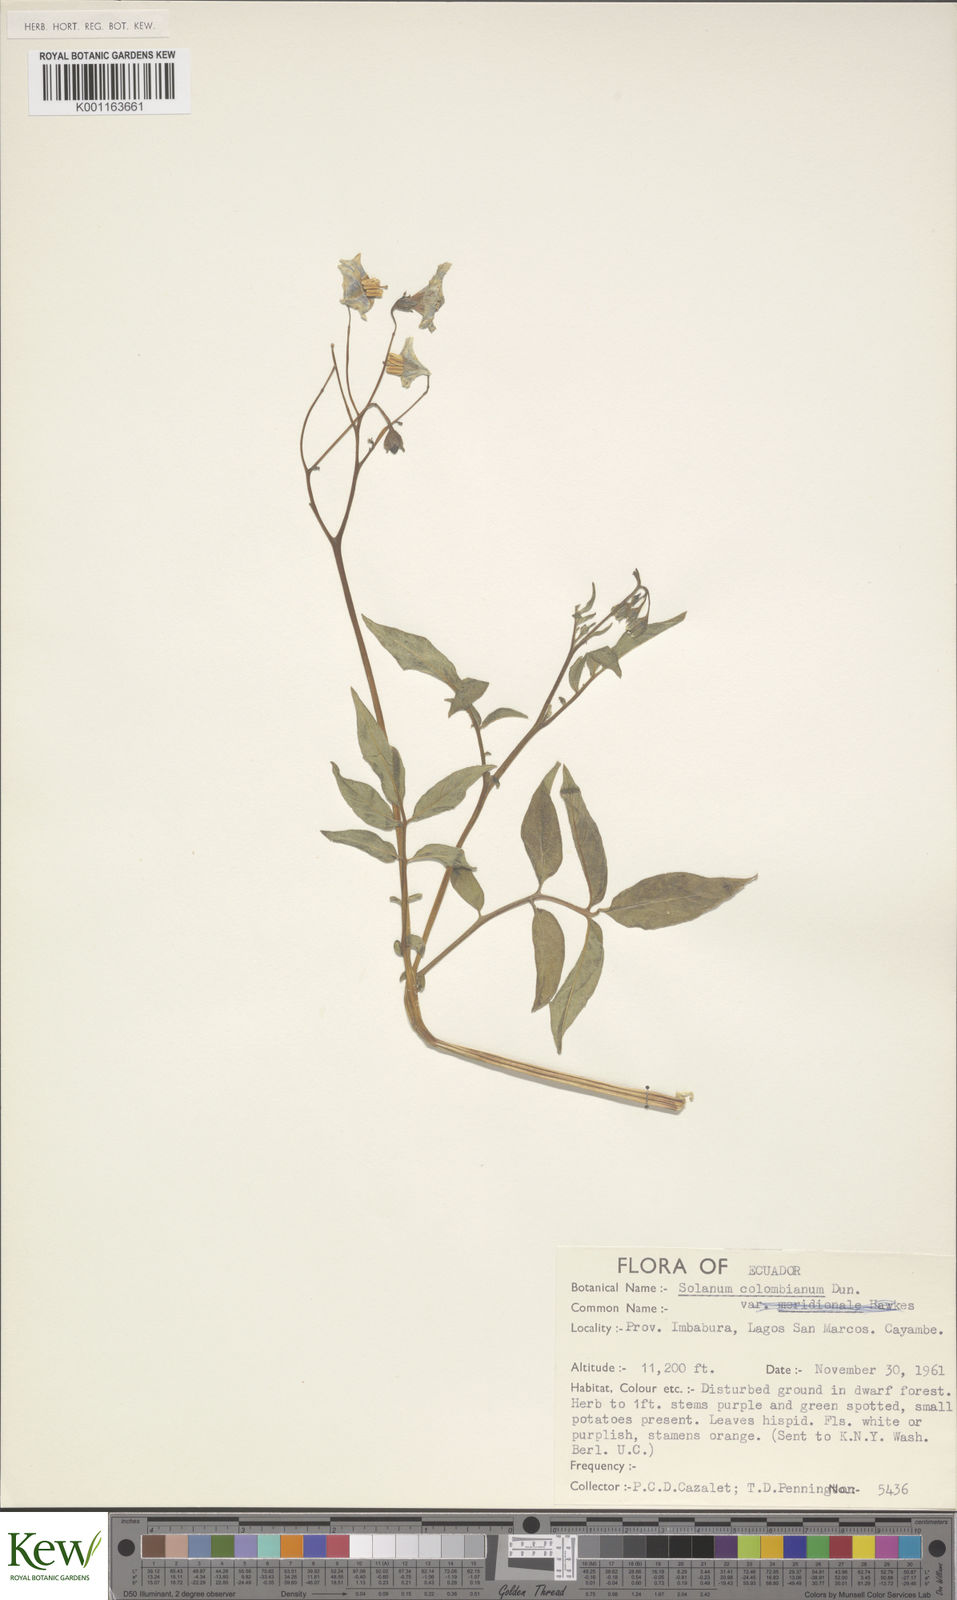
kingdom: Plantae
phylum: Tracheophyta
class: Magnoliopsida
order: Solanales
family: Solanaceae
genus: Solanum
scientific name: Solanum colombianum
